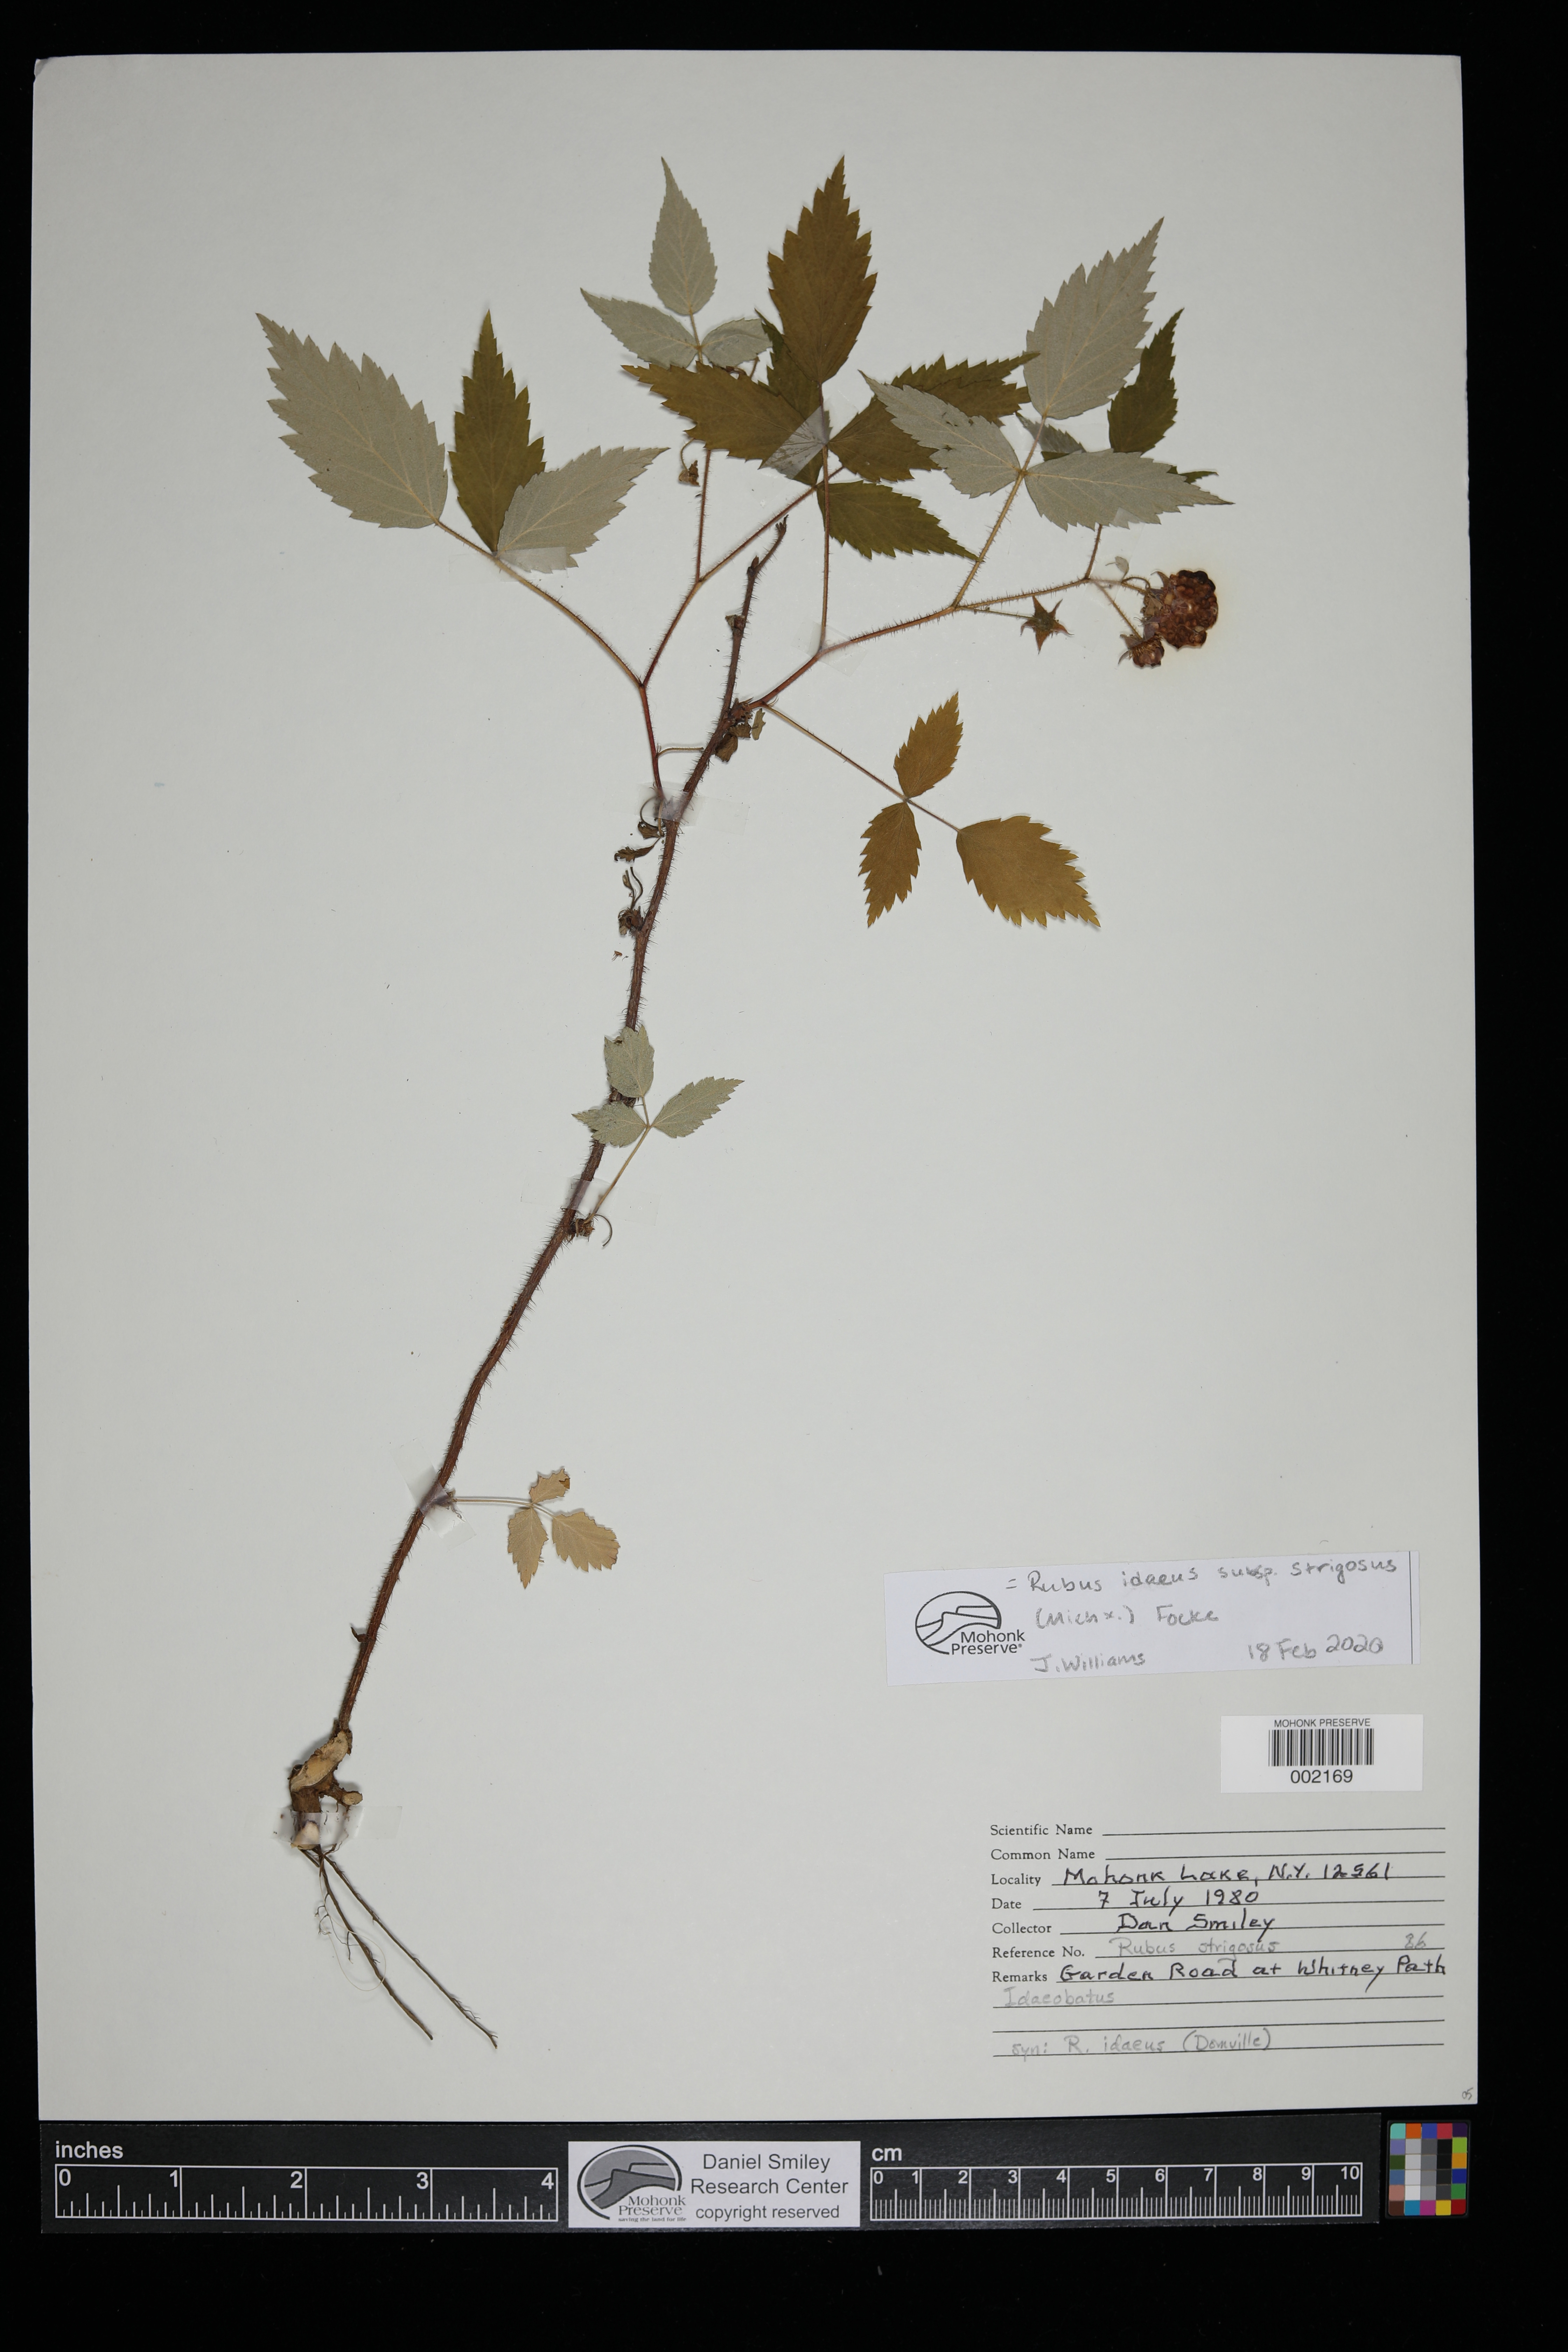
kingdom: Plantae
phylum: Tracheophyta
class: Magnoliopsida
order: Rosales
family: Rosaceae
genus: Rubus
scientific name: Rubus idaeus
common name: Raspberry
